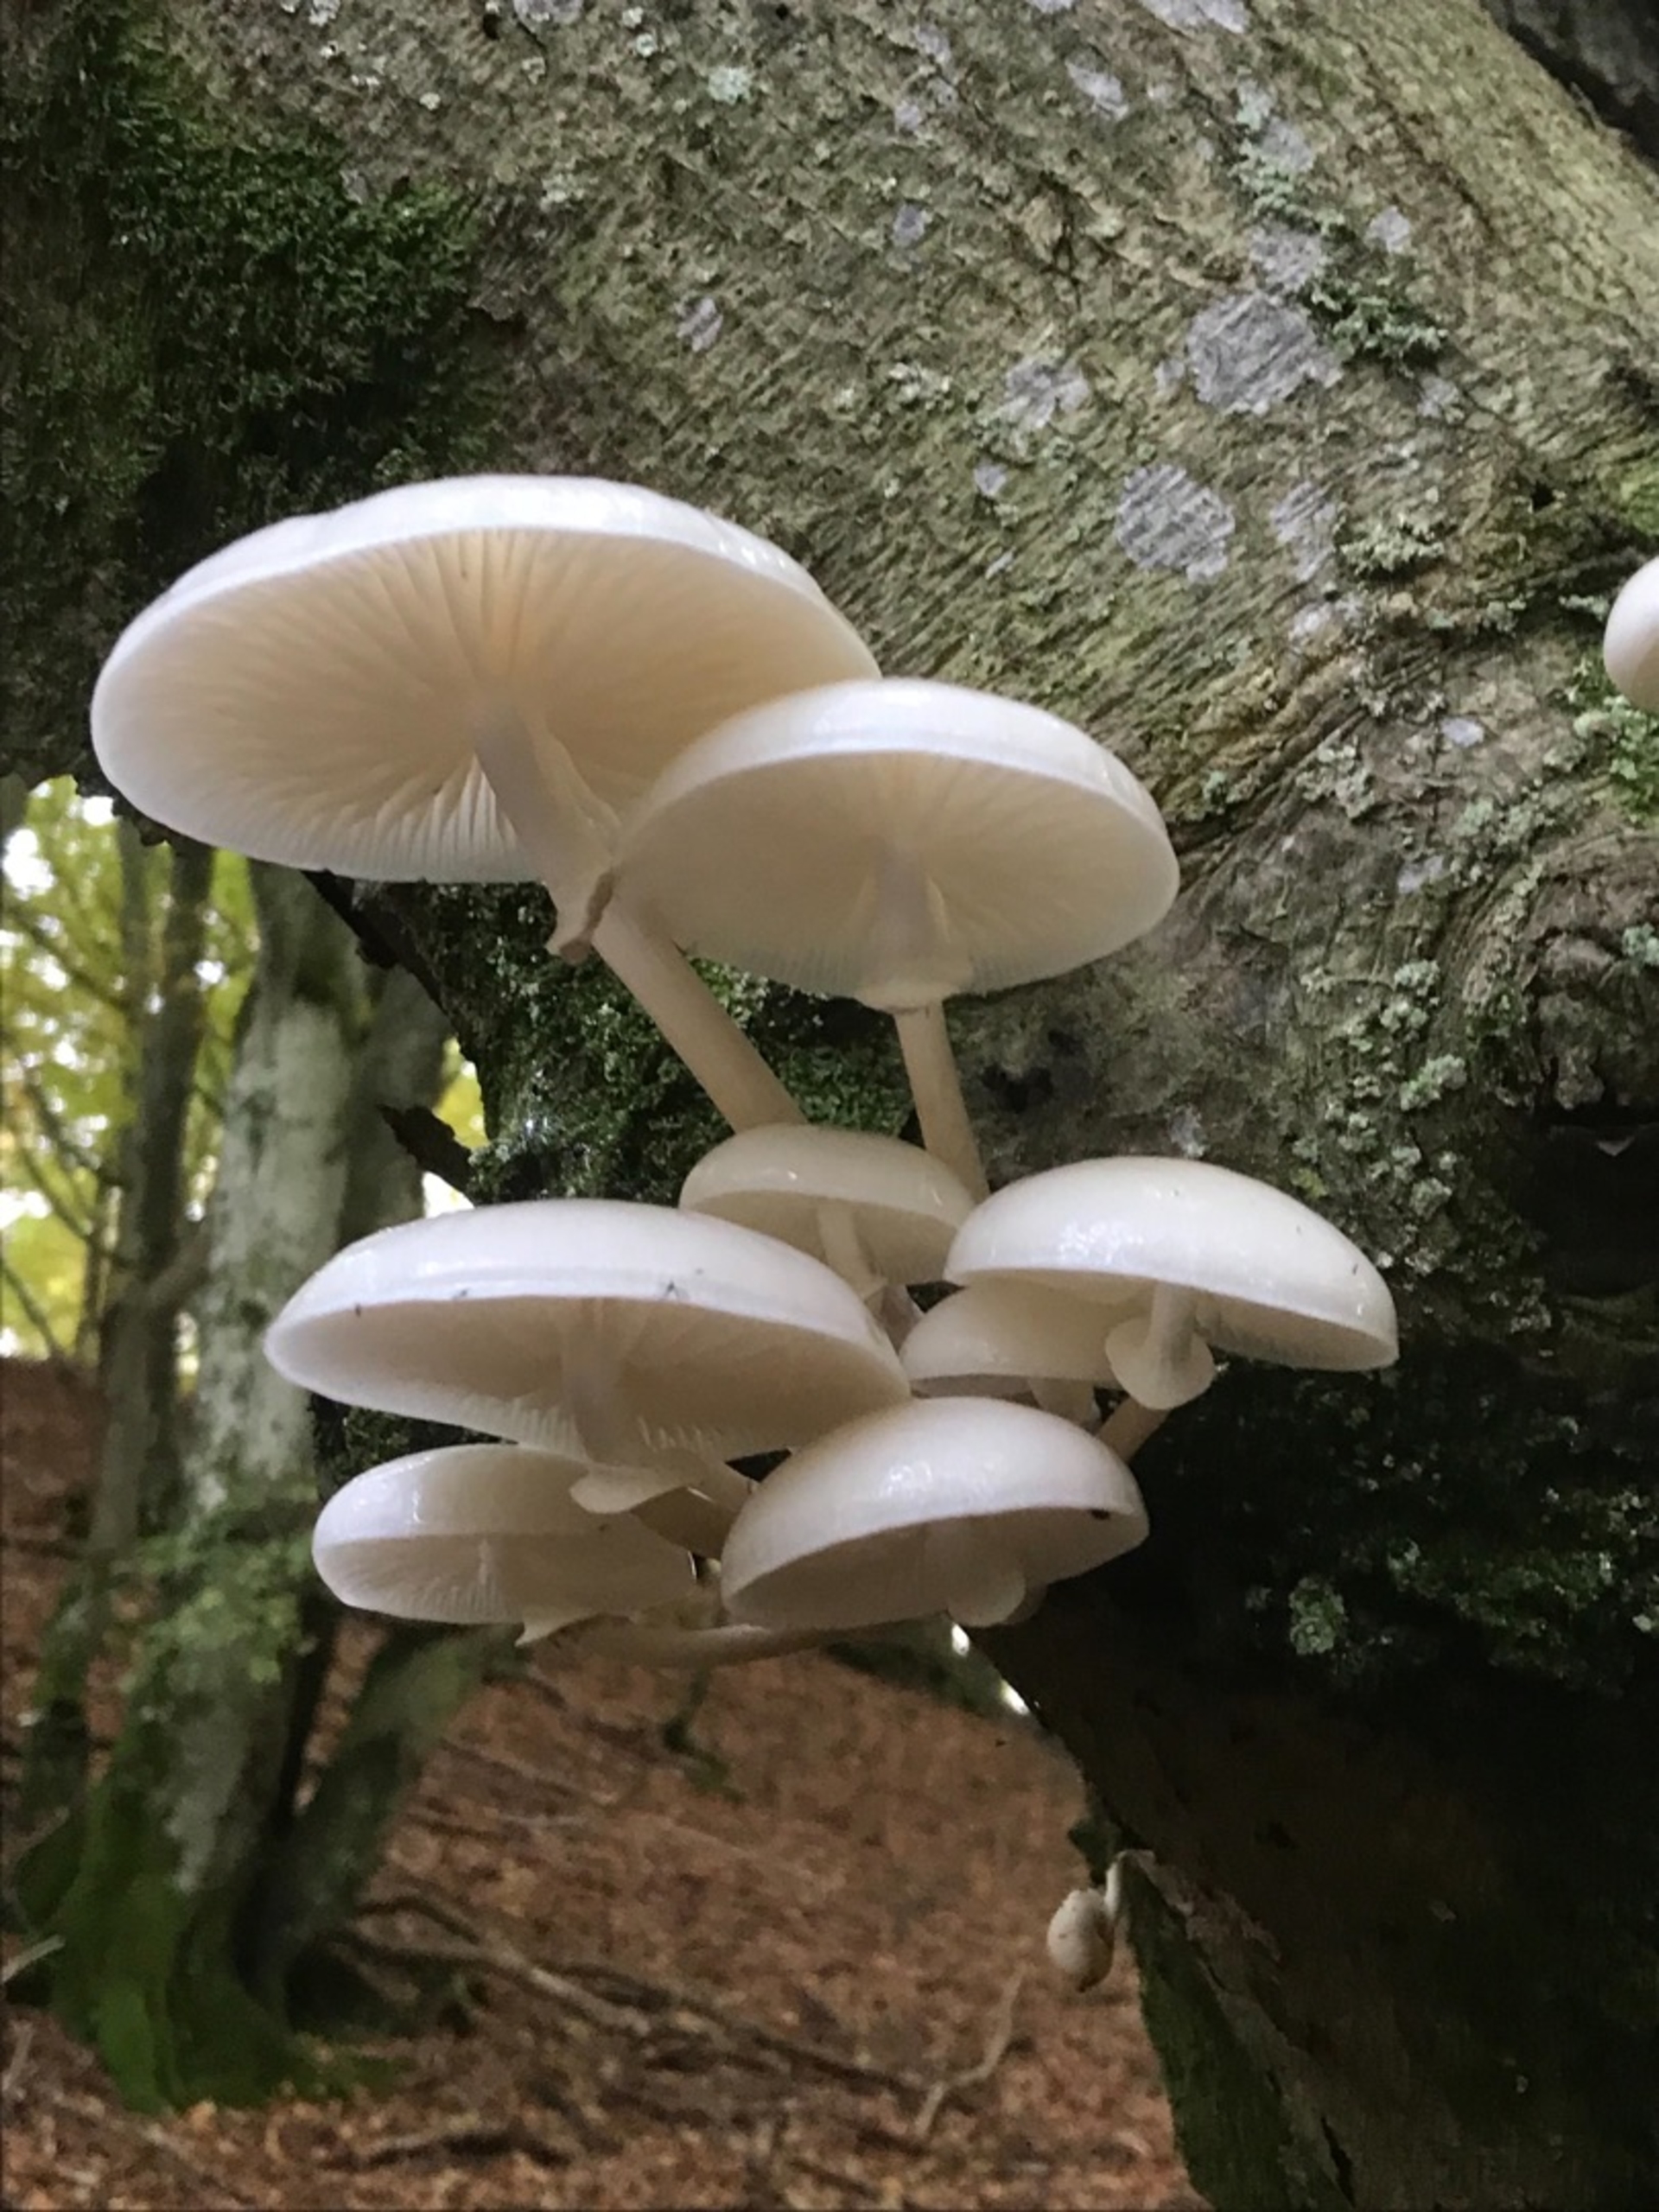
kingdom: Fungi
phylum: Basidiomycota
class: Agaricomycetes
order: Agaricales
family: Physalacriaceae
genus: Mucidula
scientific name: Mucidula
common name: Porcelænshat
